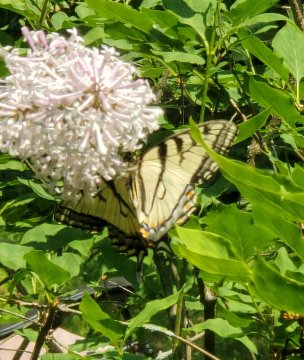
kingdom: Animalia
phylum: Arthropoda
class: Insecta
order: Lepidoptera
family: Papilionidae
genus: Pterourus
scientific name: Pterourus canadensis
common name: Canadian Tiger Swallowtail
